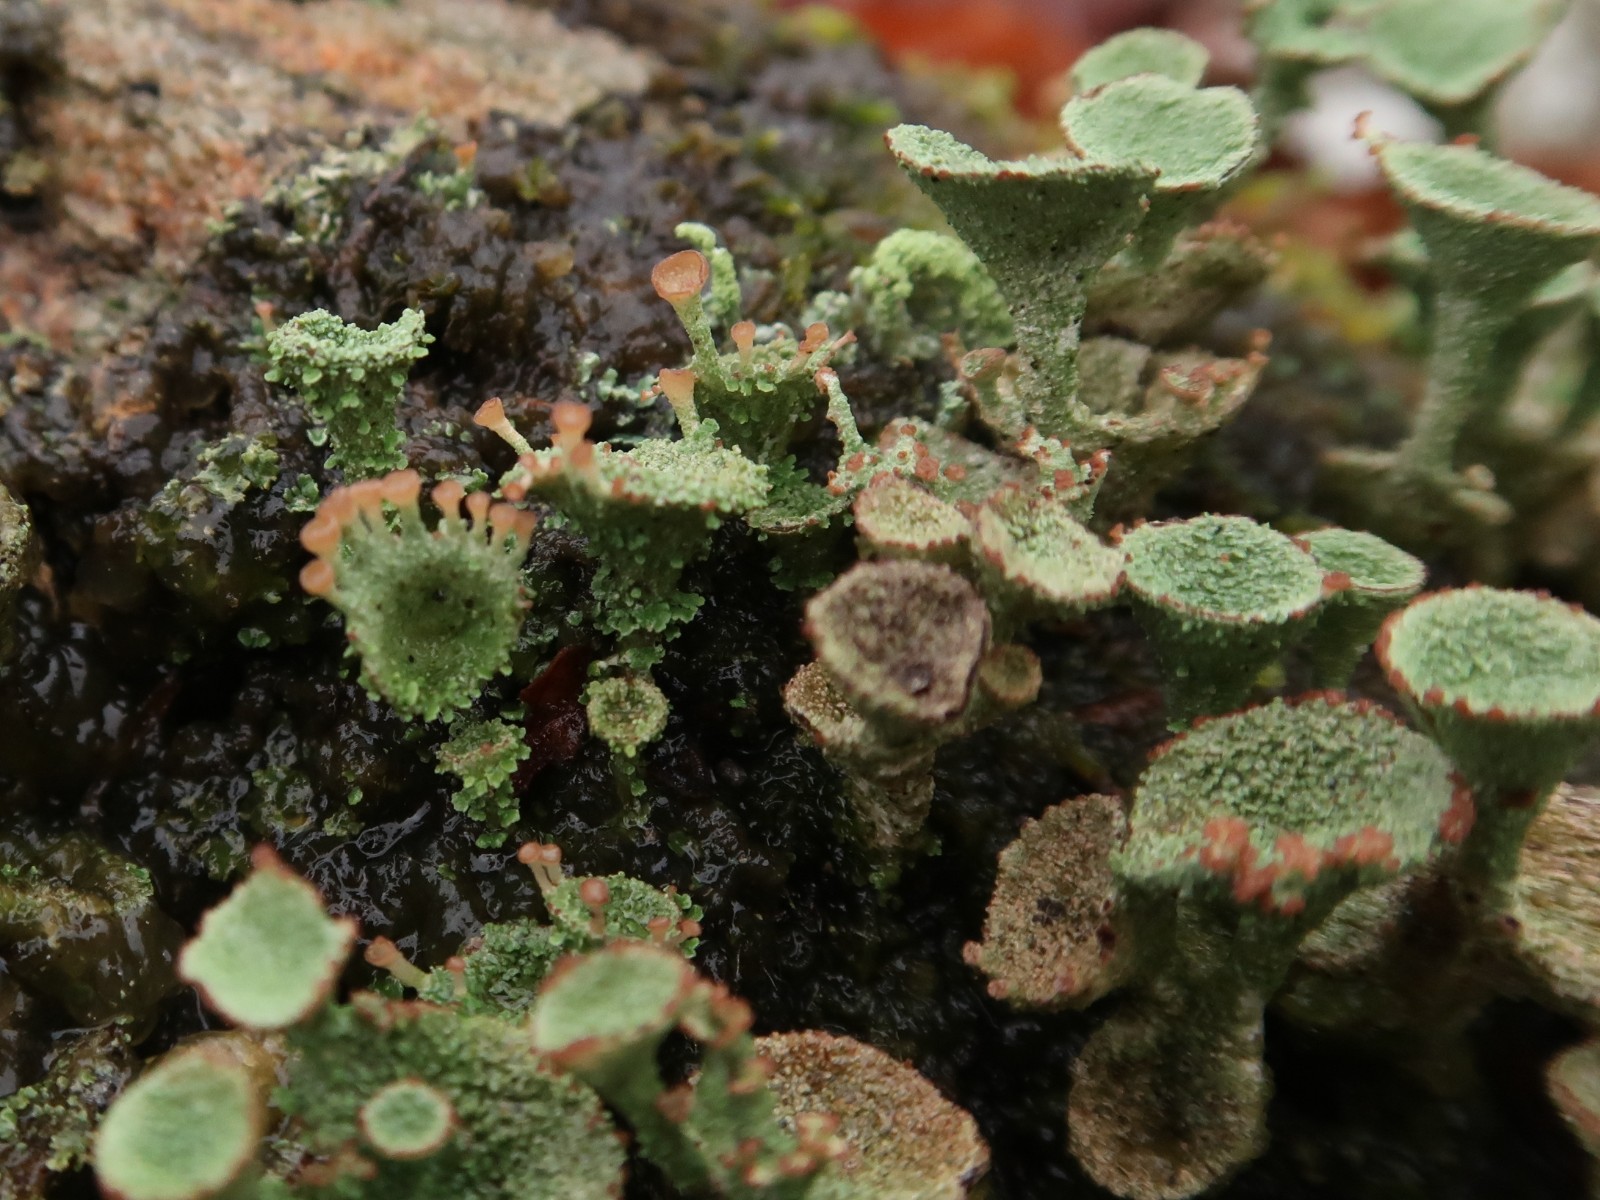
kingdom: Fungi
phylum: Ascomycota
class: Lecanoromycetes
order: Lecanorales
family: Cladoniaceae
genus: Cladonia
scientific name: Cladonia
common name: brungrøn bægerlav
